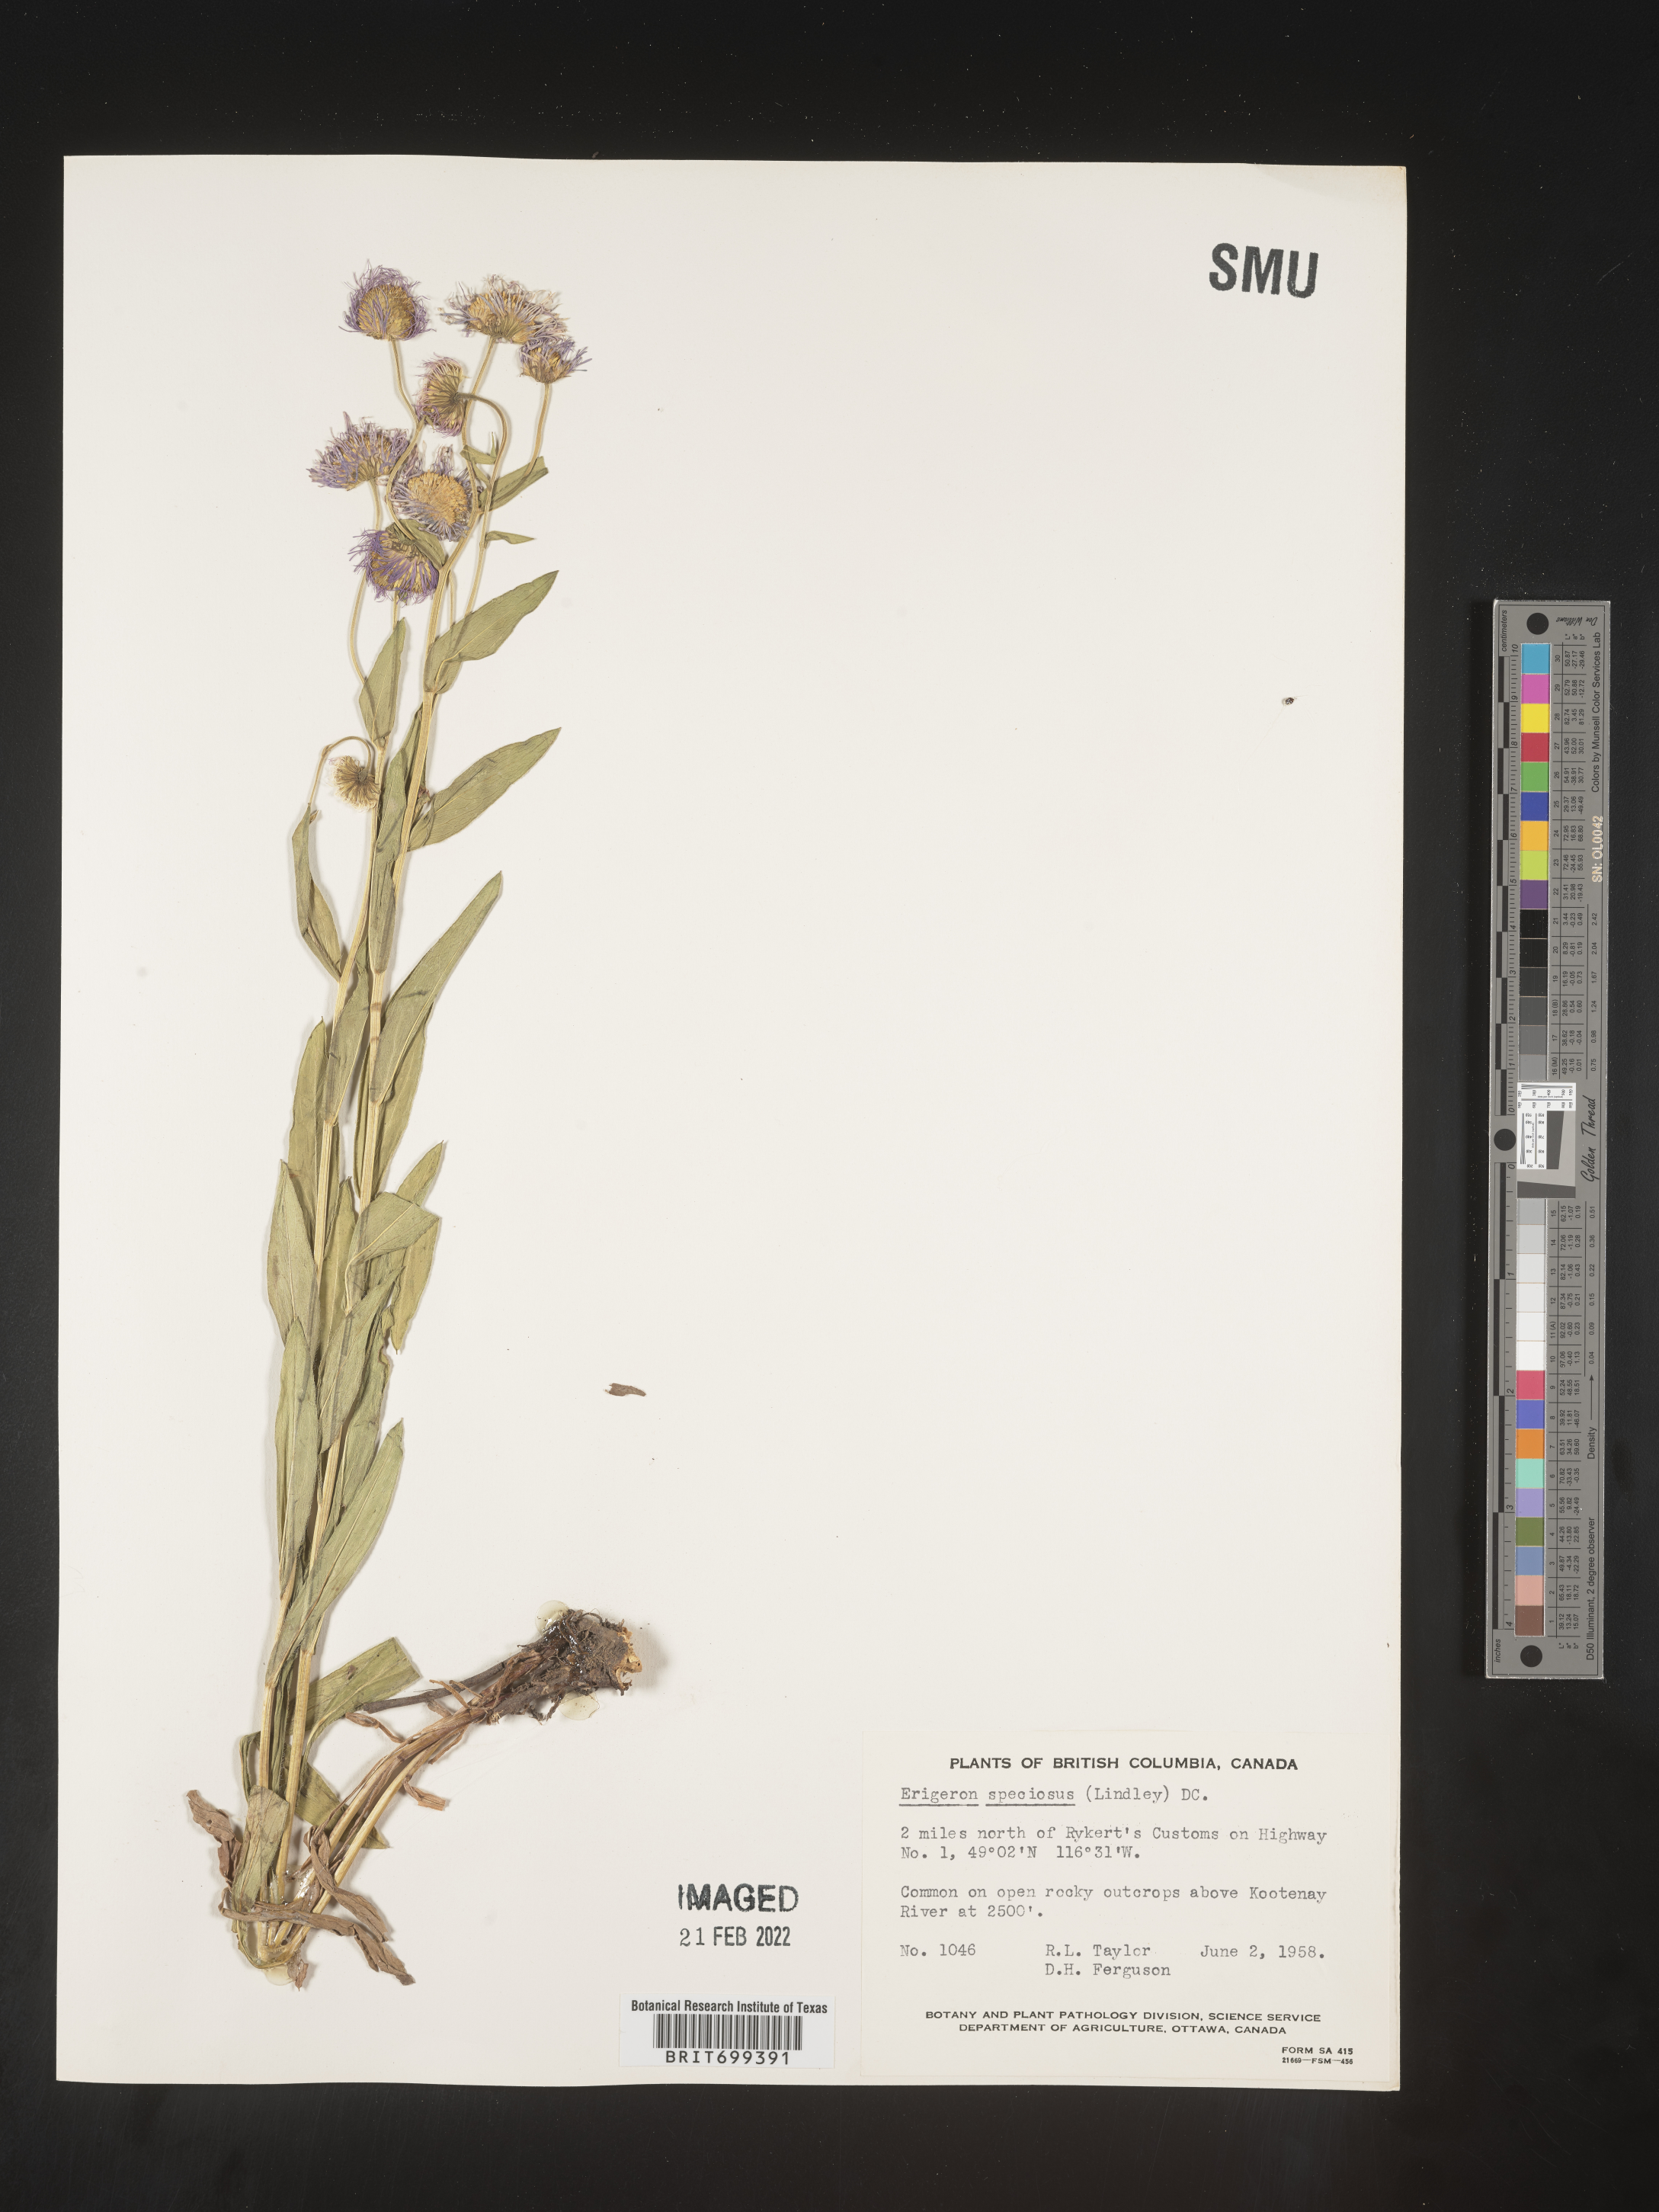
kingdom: Plantae
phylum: Tracheophyta
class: Magnoliopsida
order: Asterales
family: Asteraceae
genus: Erigeron
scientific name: Erigeron speciosus
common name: Aspen fleabane
